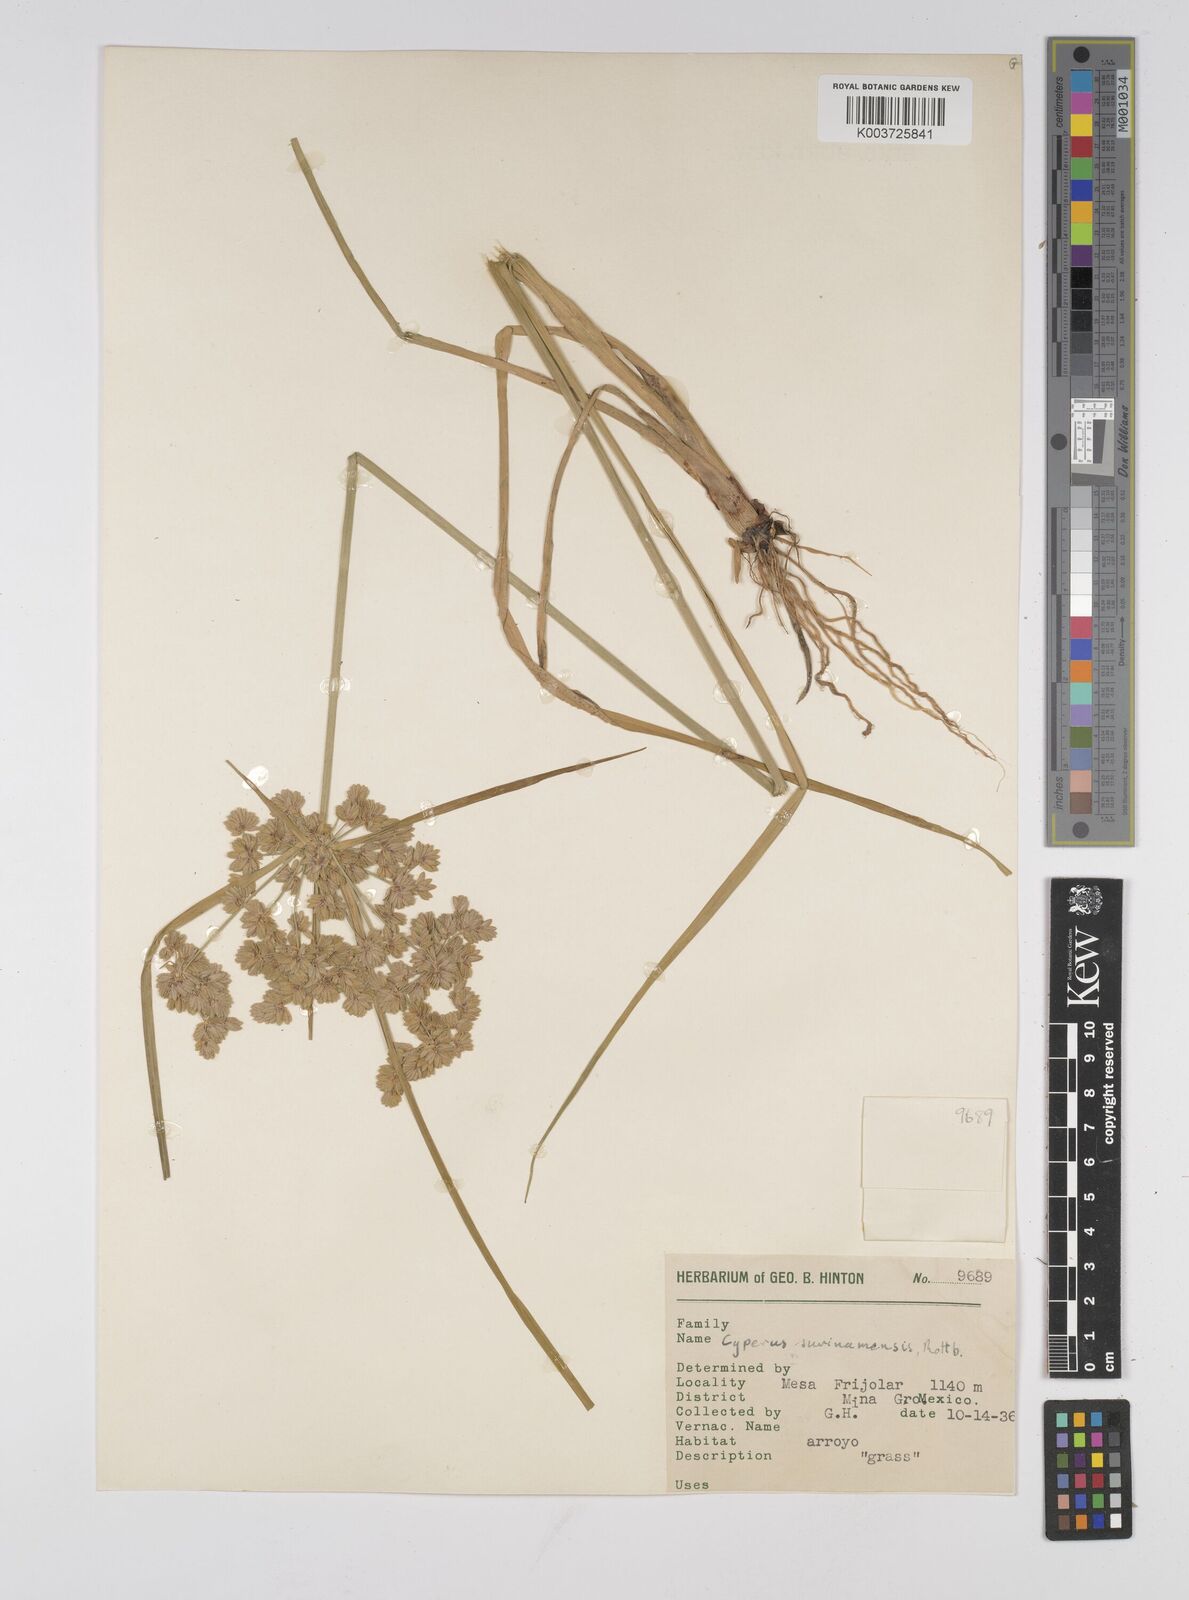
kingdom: Plantae
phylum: Tracheophyta
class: Liliopsida
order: Poales
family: Cyperaceae
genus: Cyperus
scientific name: Cyperus surinamensis
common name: Tropical flat sedge
